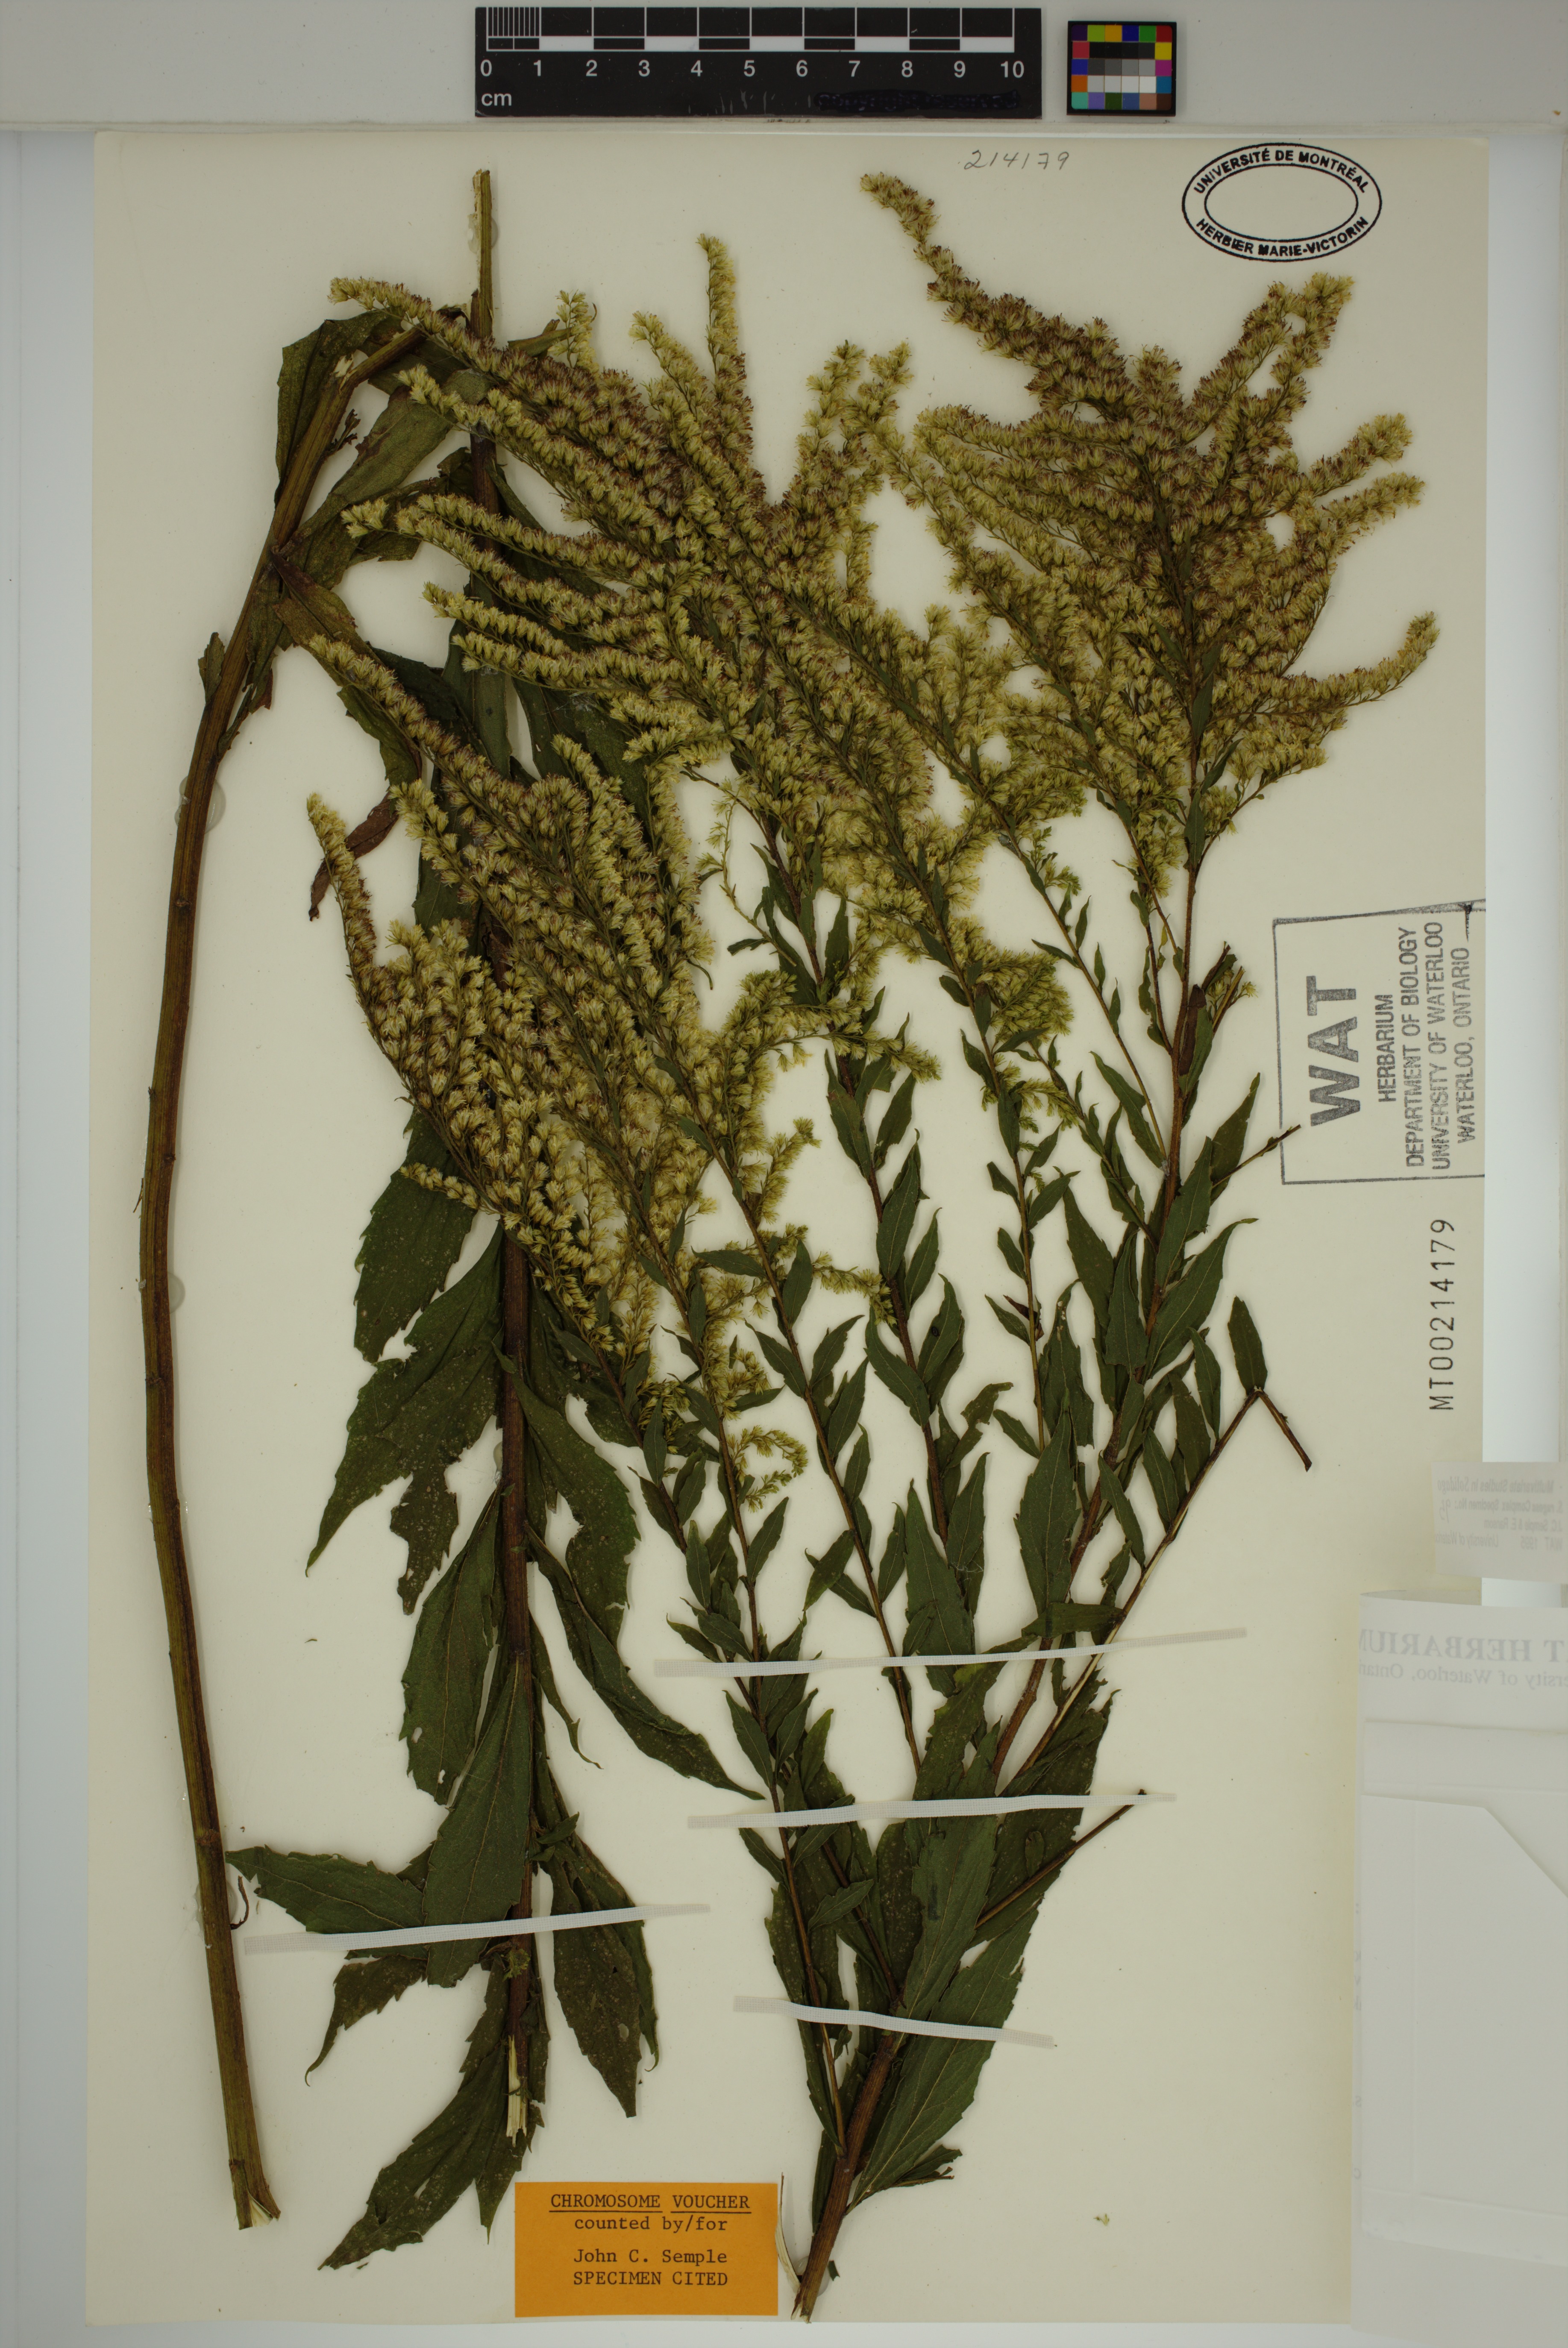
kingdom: Plantae
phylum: Tracheophyta
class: Magnoliopsida
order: Asterales
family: Asteraceae
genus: Solidago
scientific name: Solidago rugosa
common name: Rough-stemmed goldenrod
